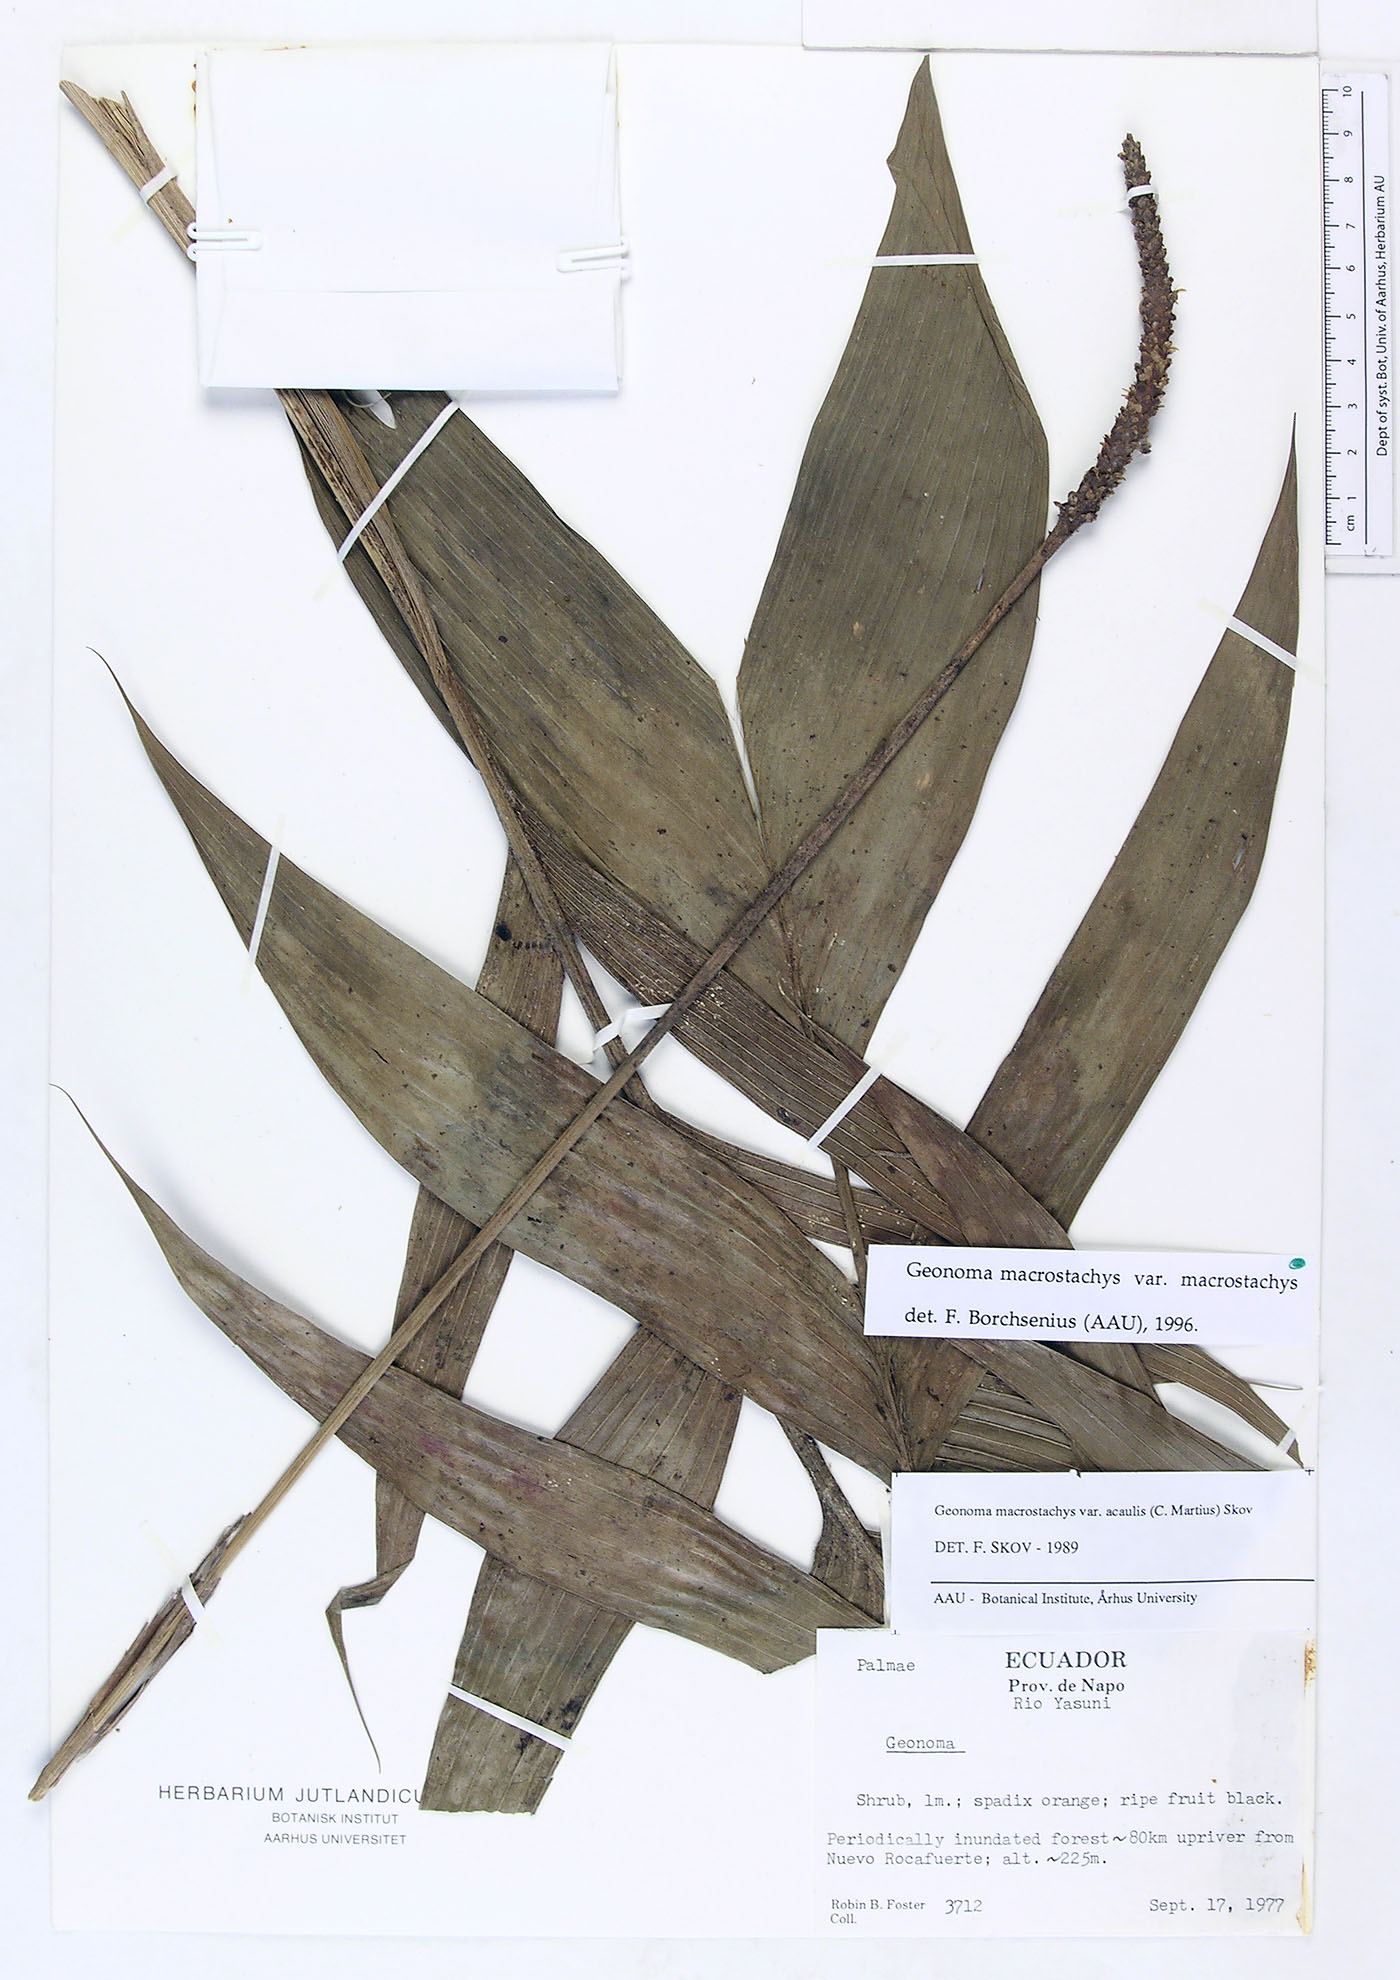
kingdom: Plantae
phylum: Tracheophyta
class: Liliopsida
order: Arecales
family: Arecaceae
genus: Geonoma
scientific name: Geonoma macrostachys
